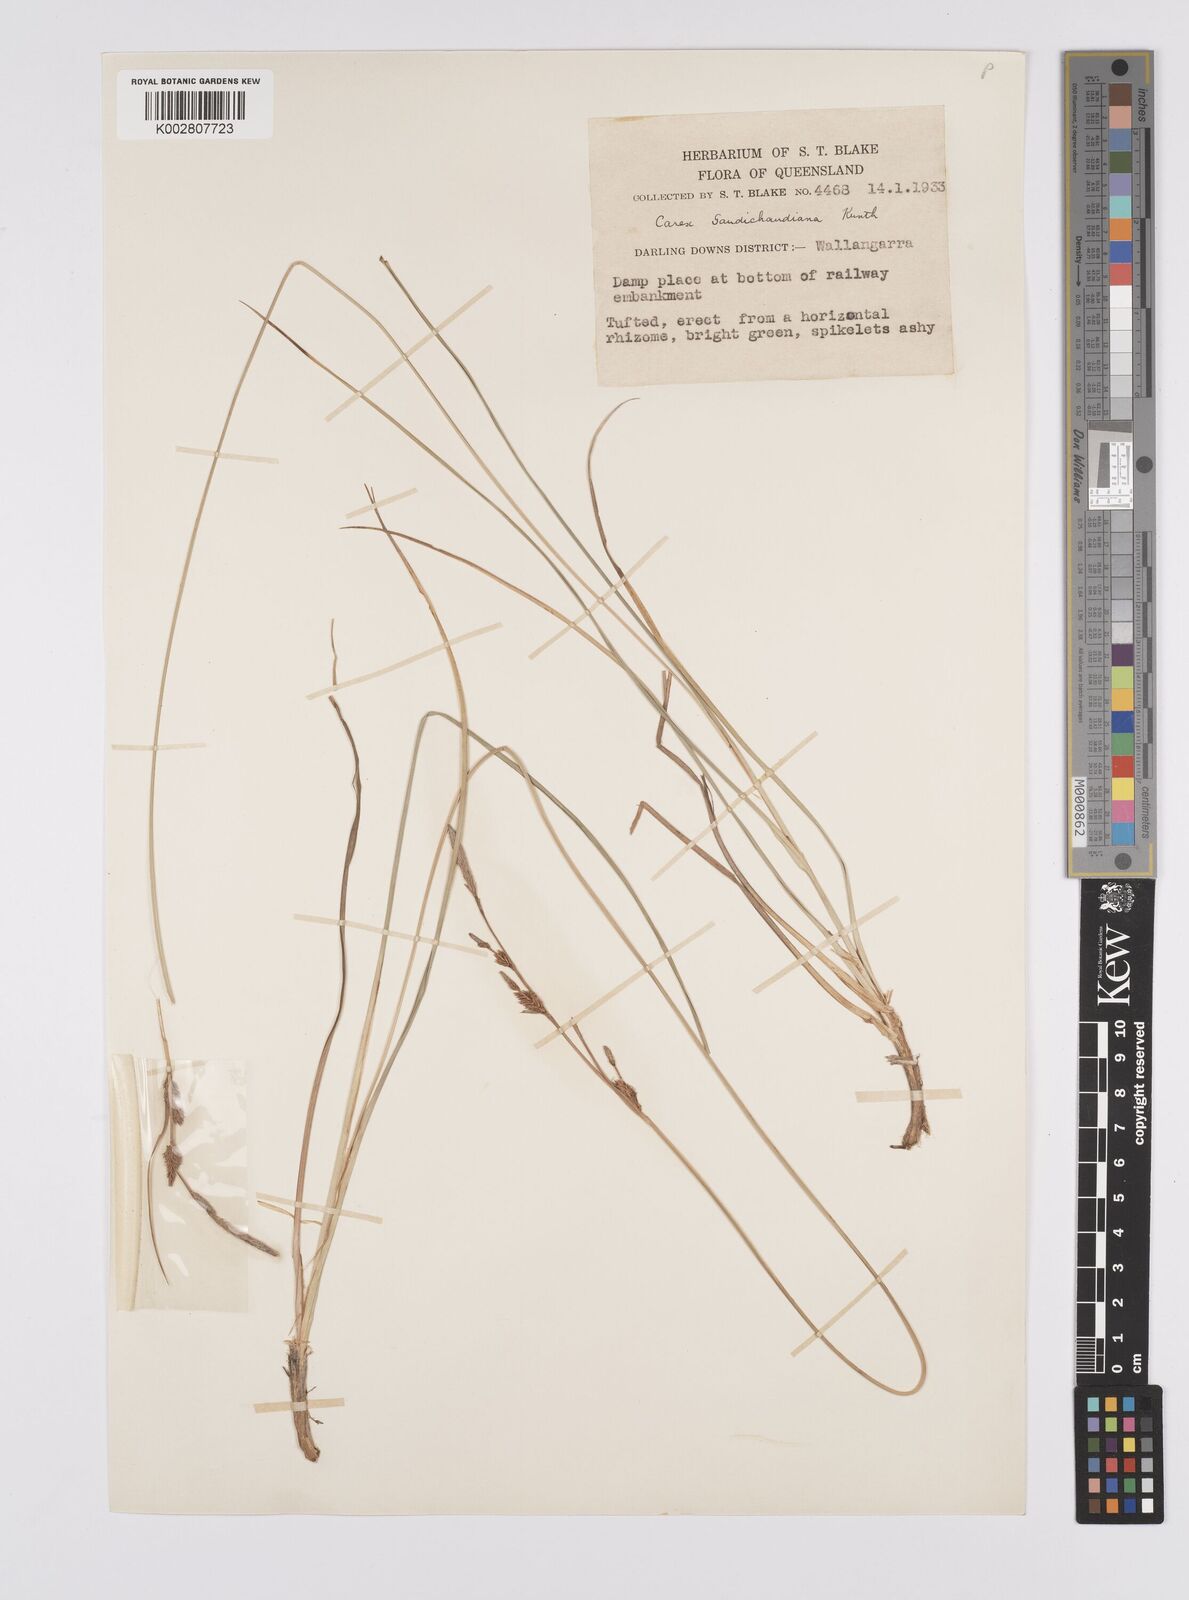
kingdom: Plantae
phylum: Tracheophyta
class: Liliopsida
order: Poales
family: Cyperaceae
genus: Carex
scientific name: Carex gaudichaudiana
